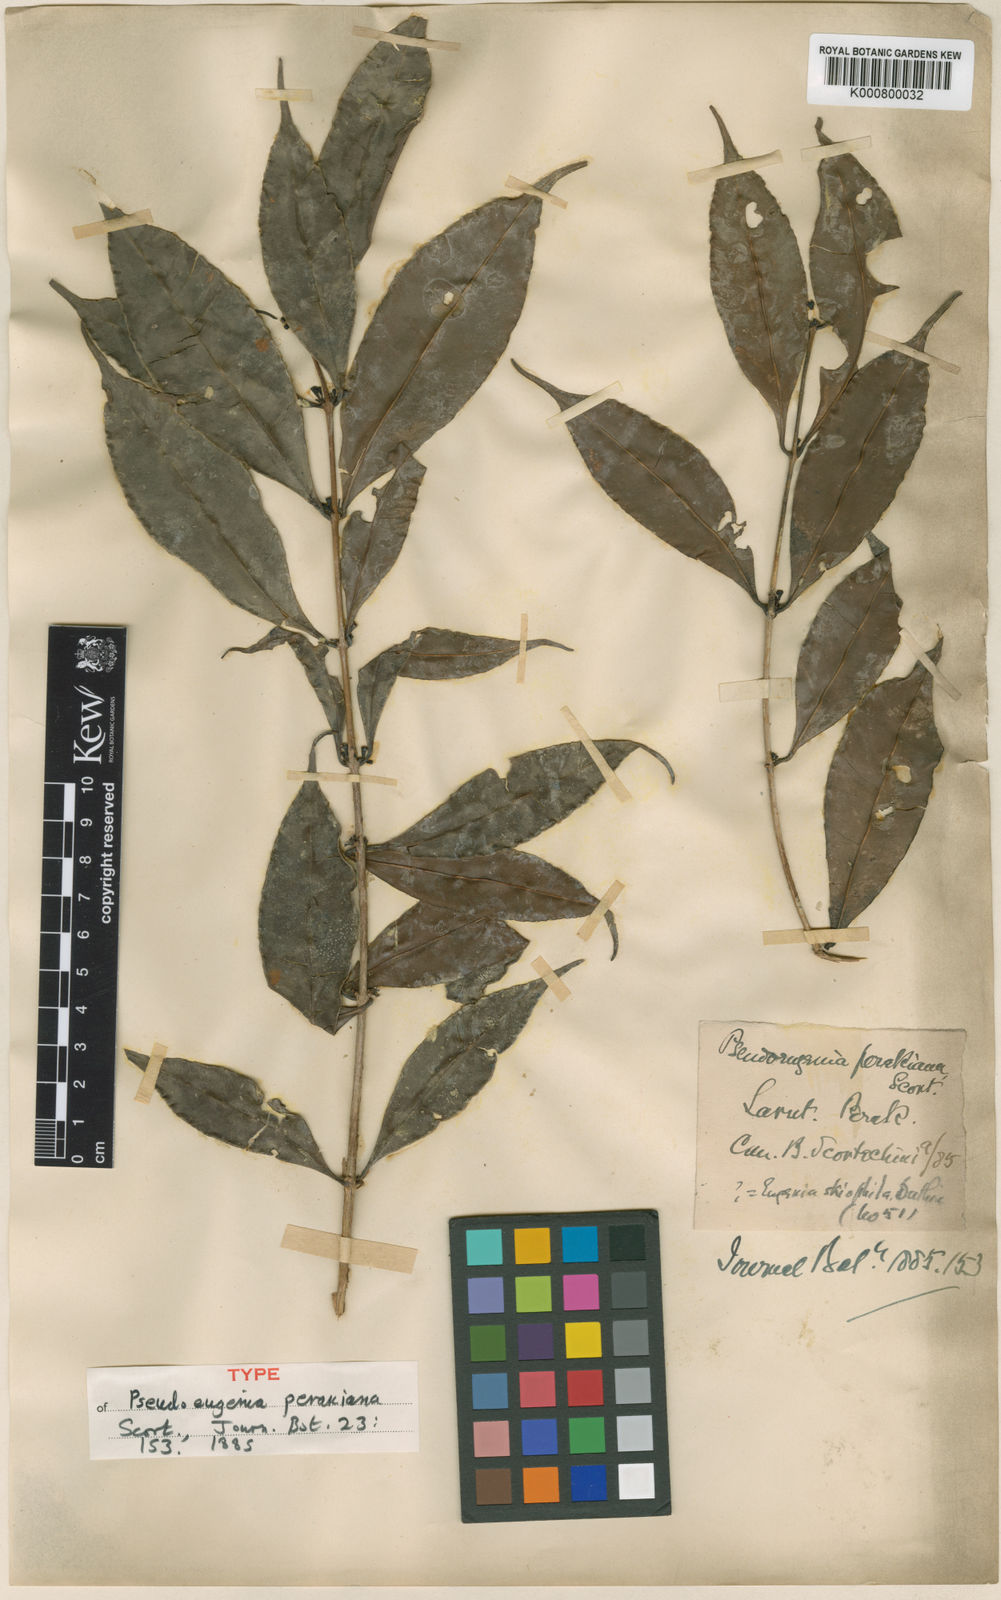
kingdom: Plantae
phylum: Tracheophyta
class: Magnoliopsida
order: Myrtales
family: Myrtaceae
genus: Syzygium
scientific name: Syzygium skiophilum
